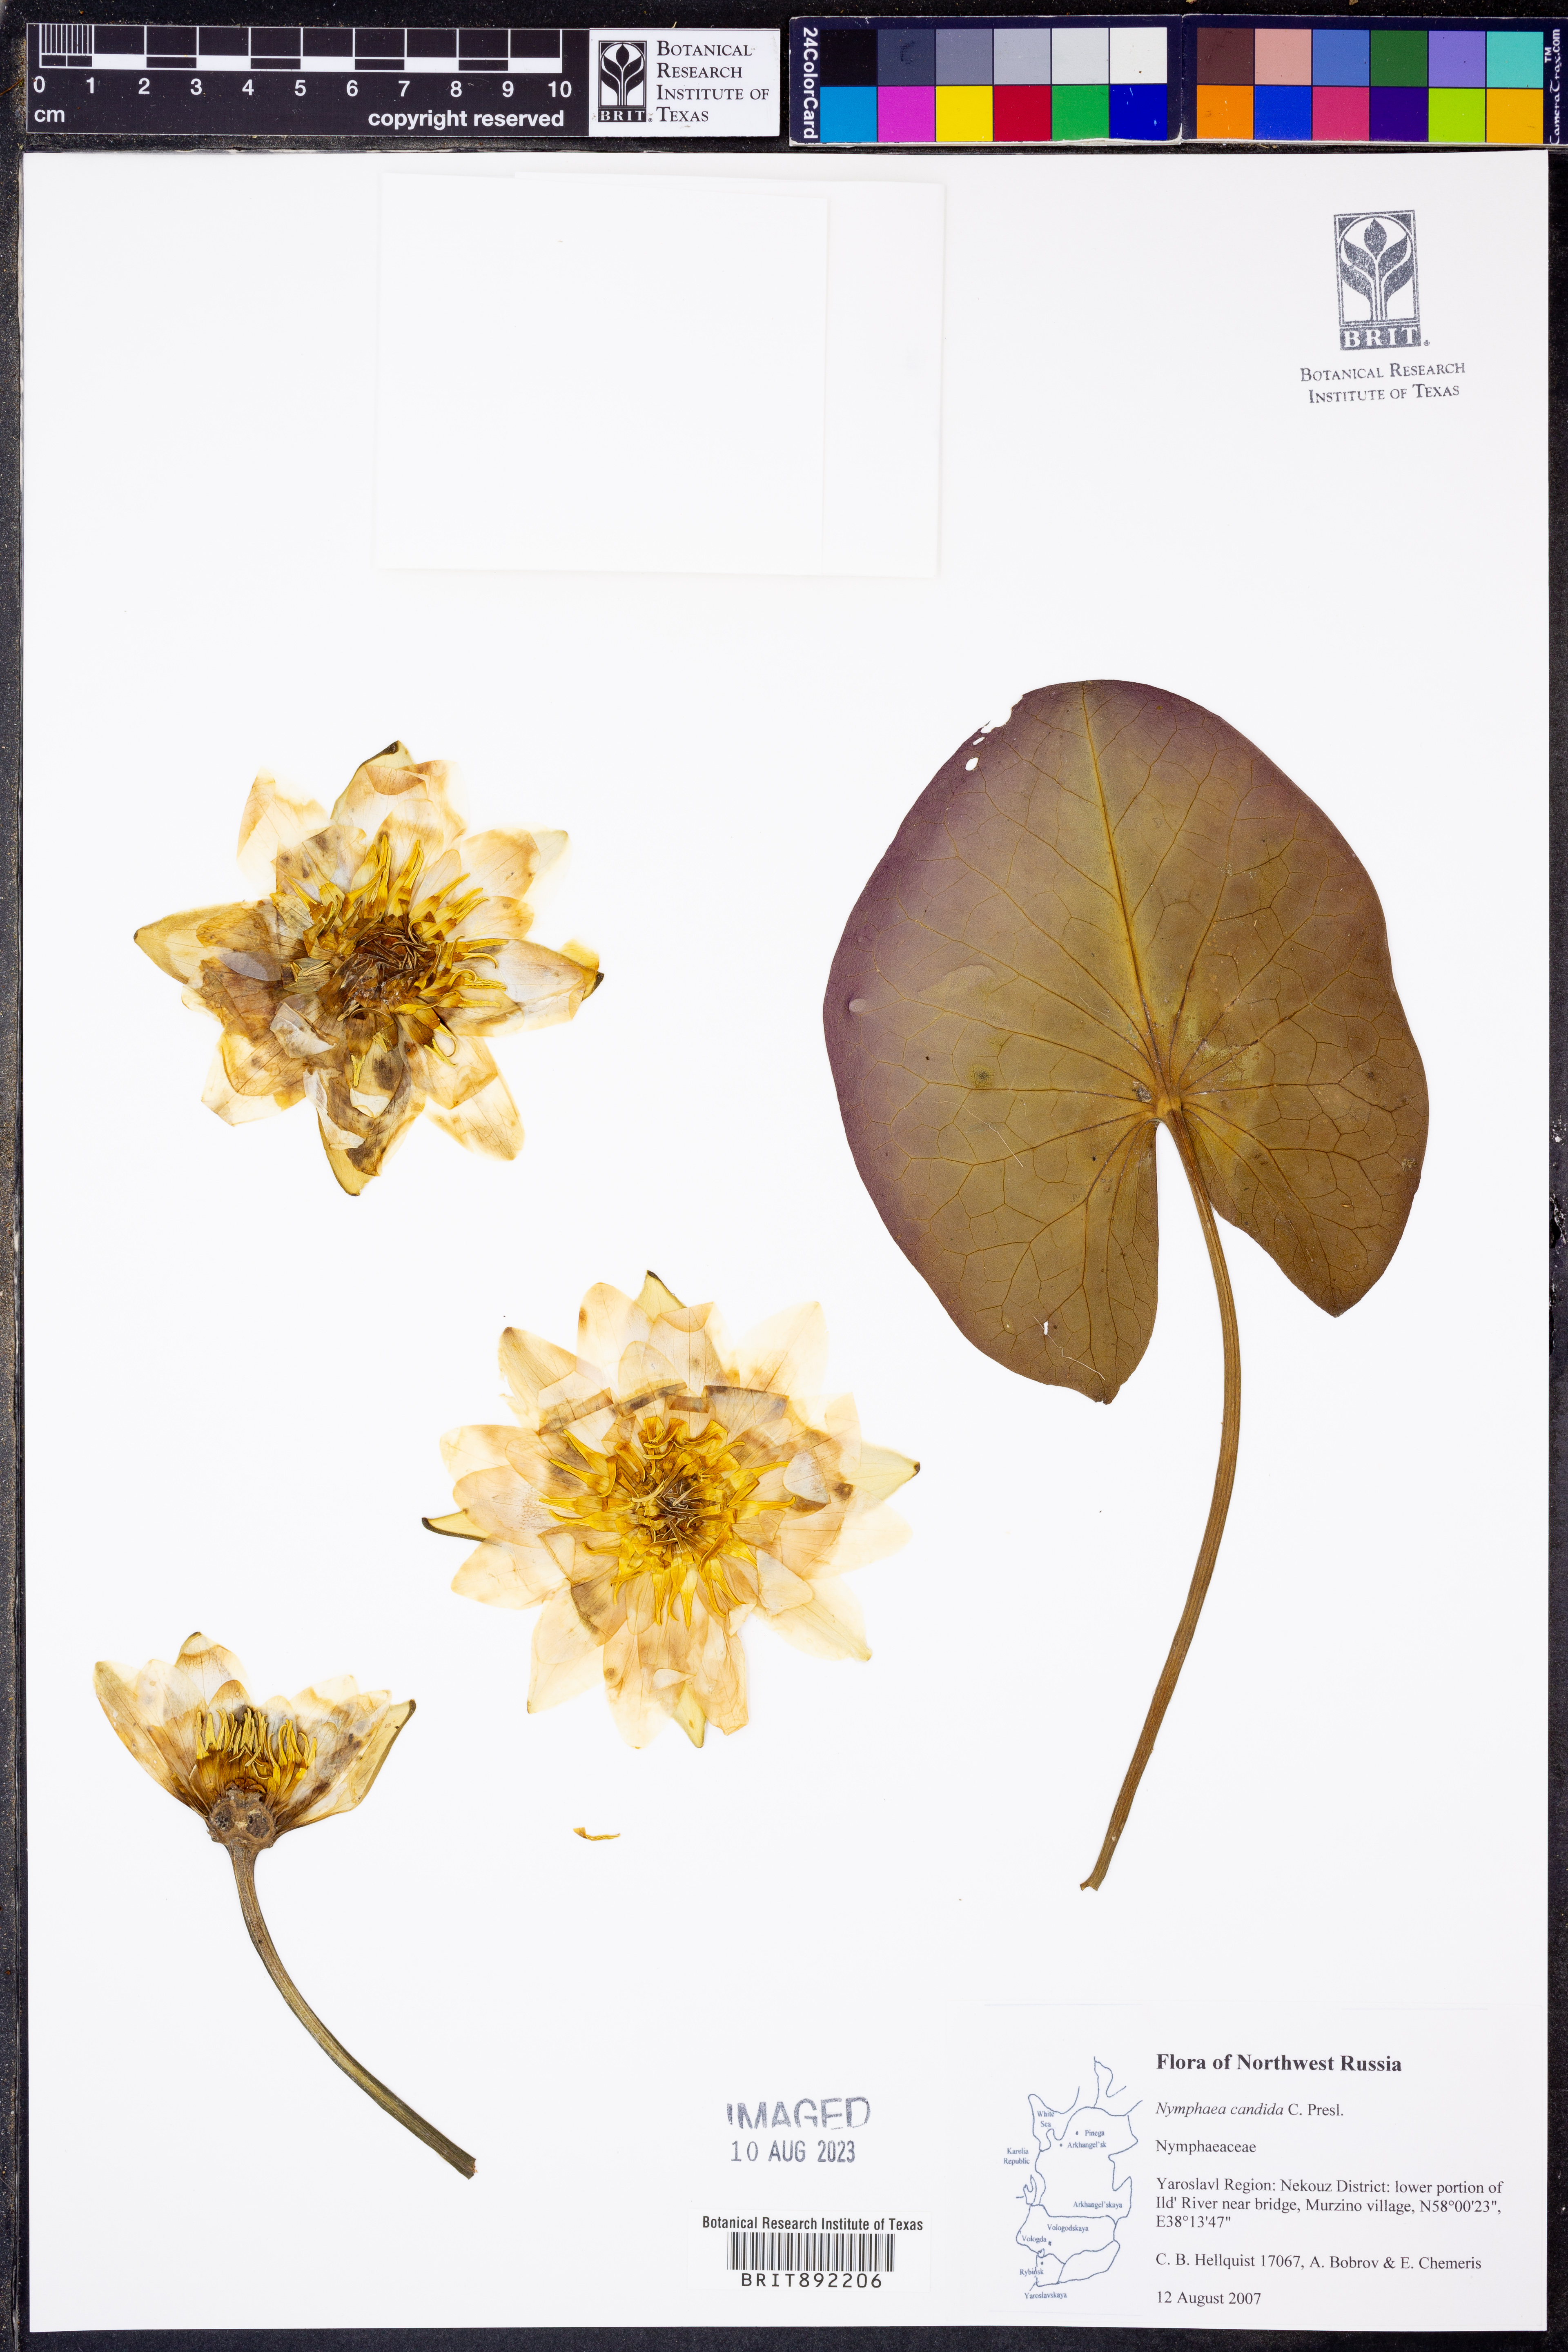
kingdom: Plantae
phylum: Tracheophyta
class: Magnoliopsida
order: Nymphaeales
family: Nymphaeaceae
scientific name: Nymphaeaceae
